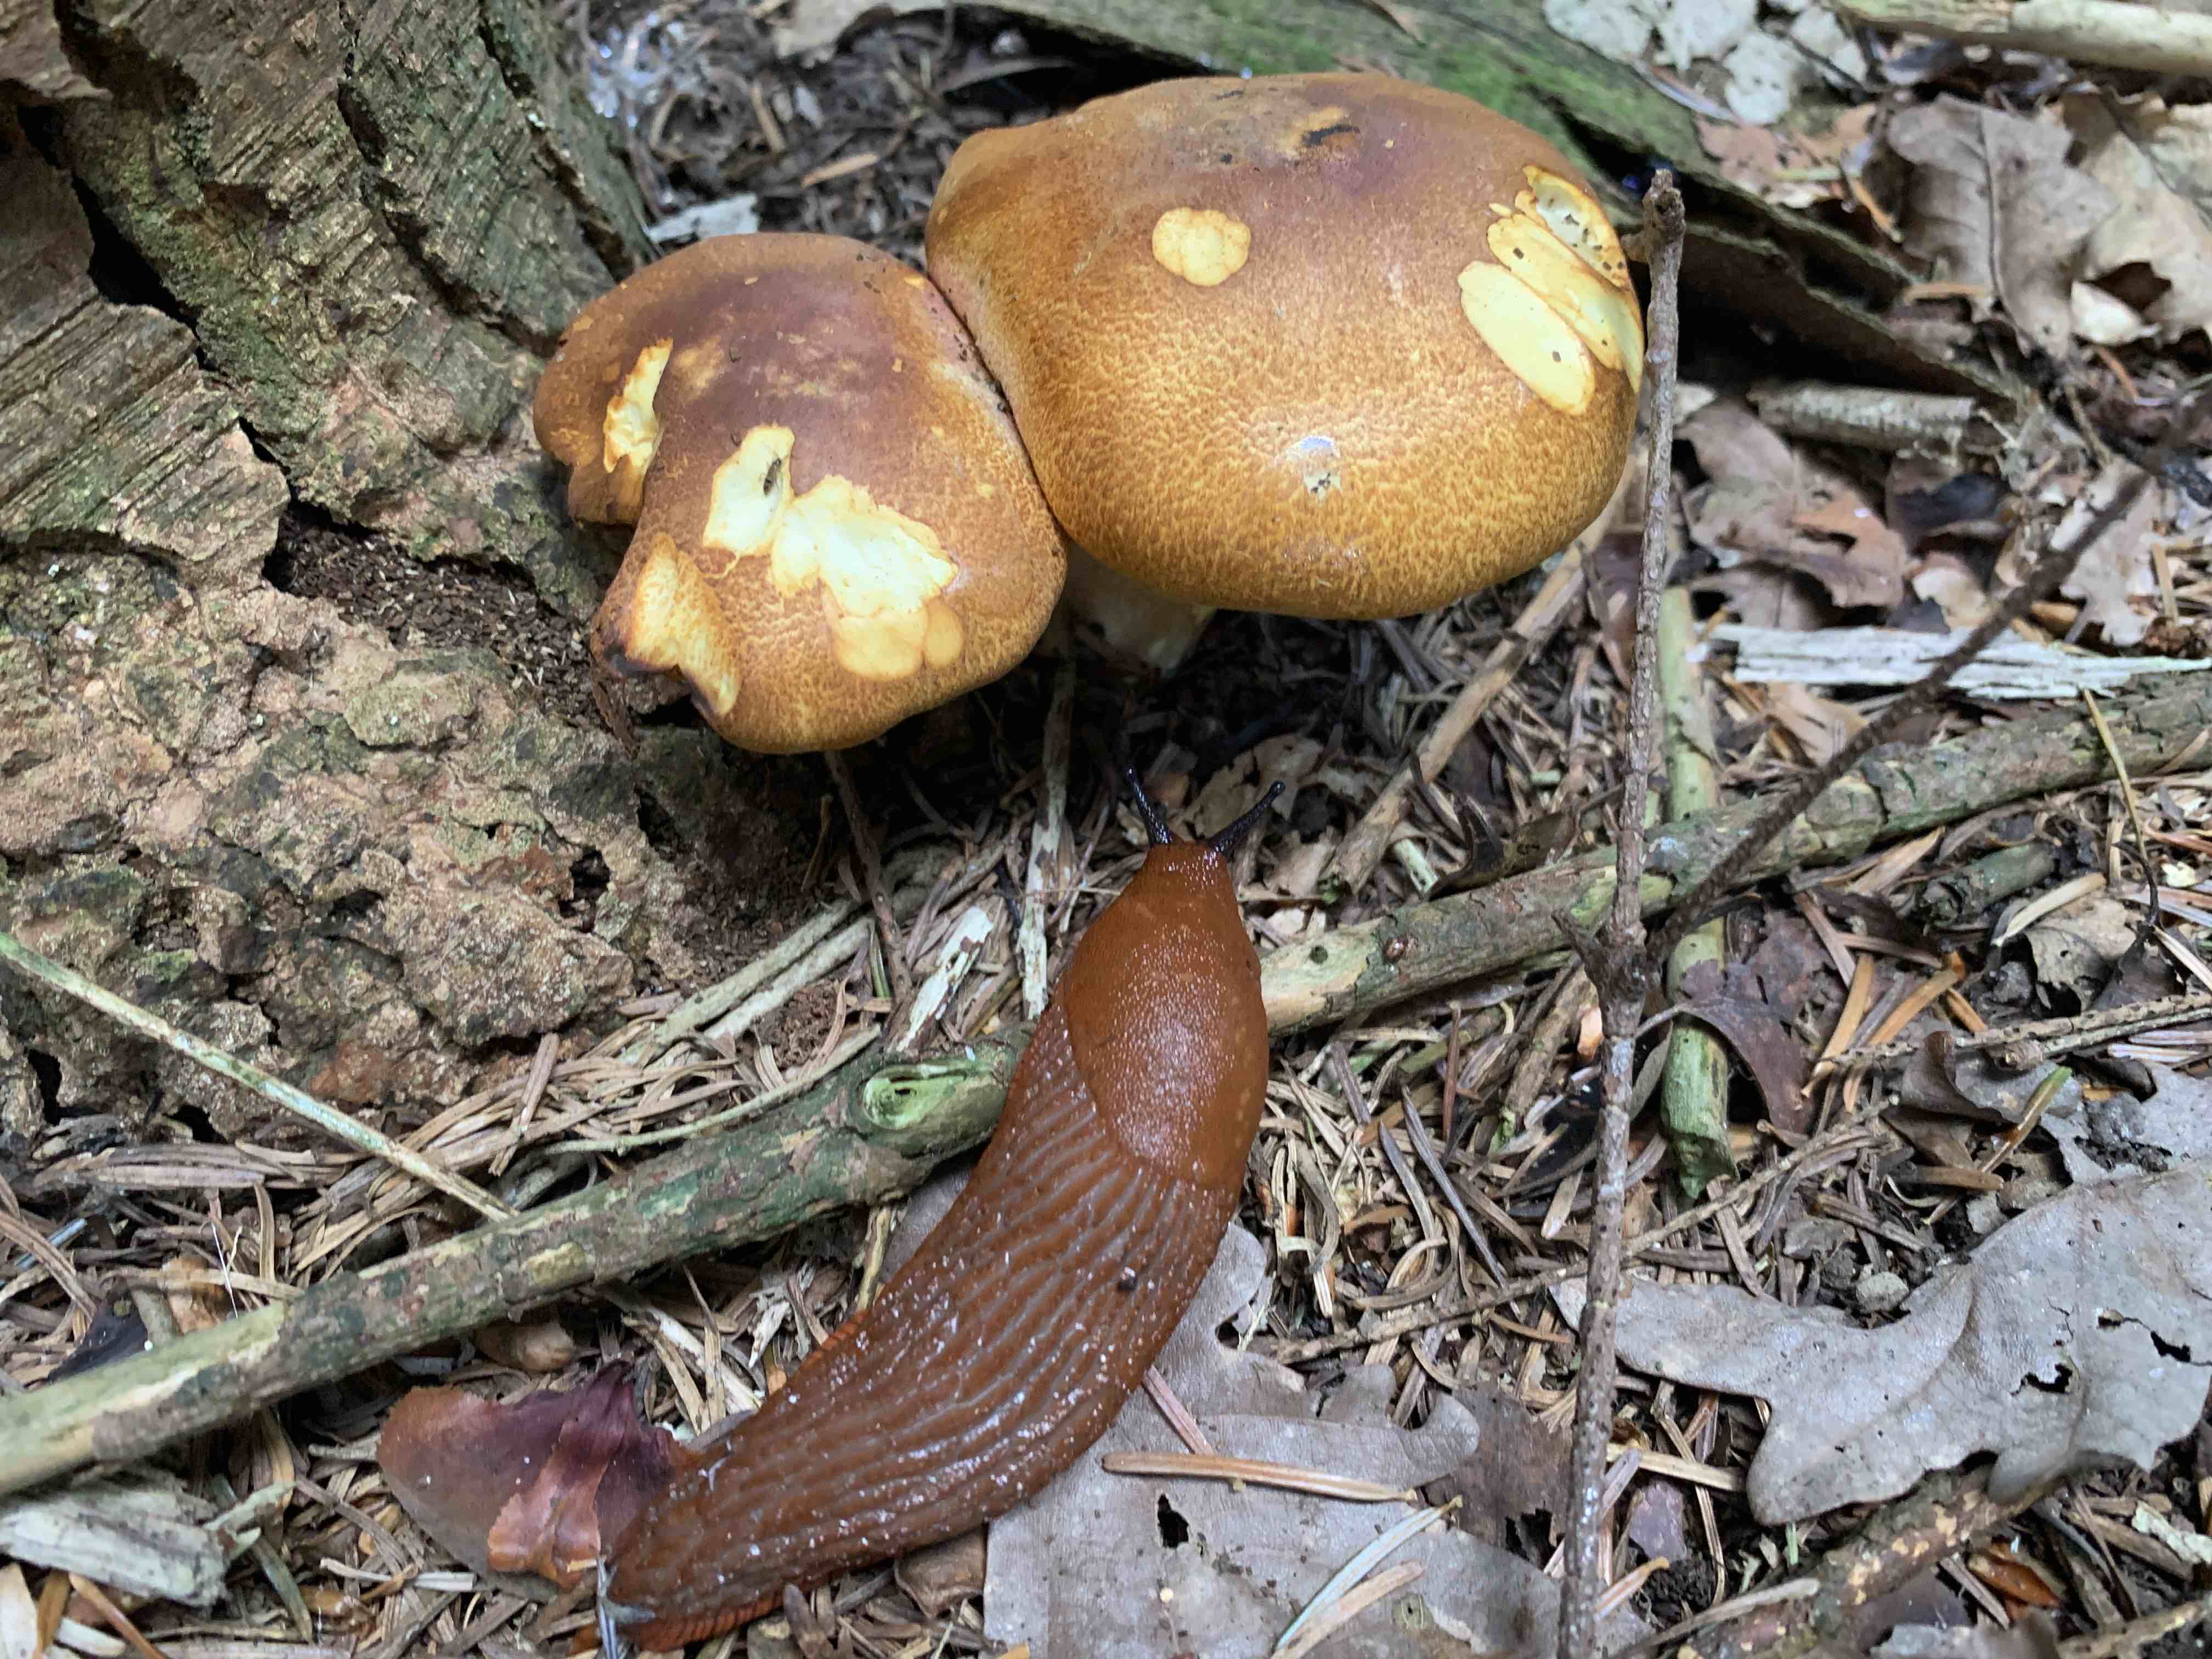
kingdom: Fungi
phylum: Basidiomycota
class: Agaricomycetes
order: Agaricales
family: Tricholomataceae
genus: Tricholomopsis
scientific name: Tricholomopsis rutilans
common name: purpur-væbnerhat
